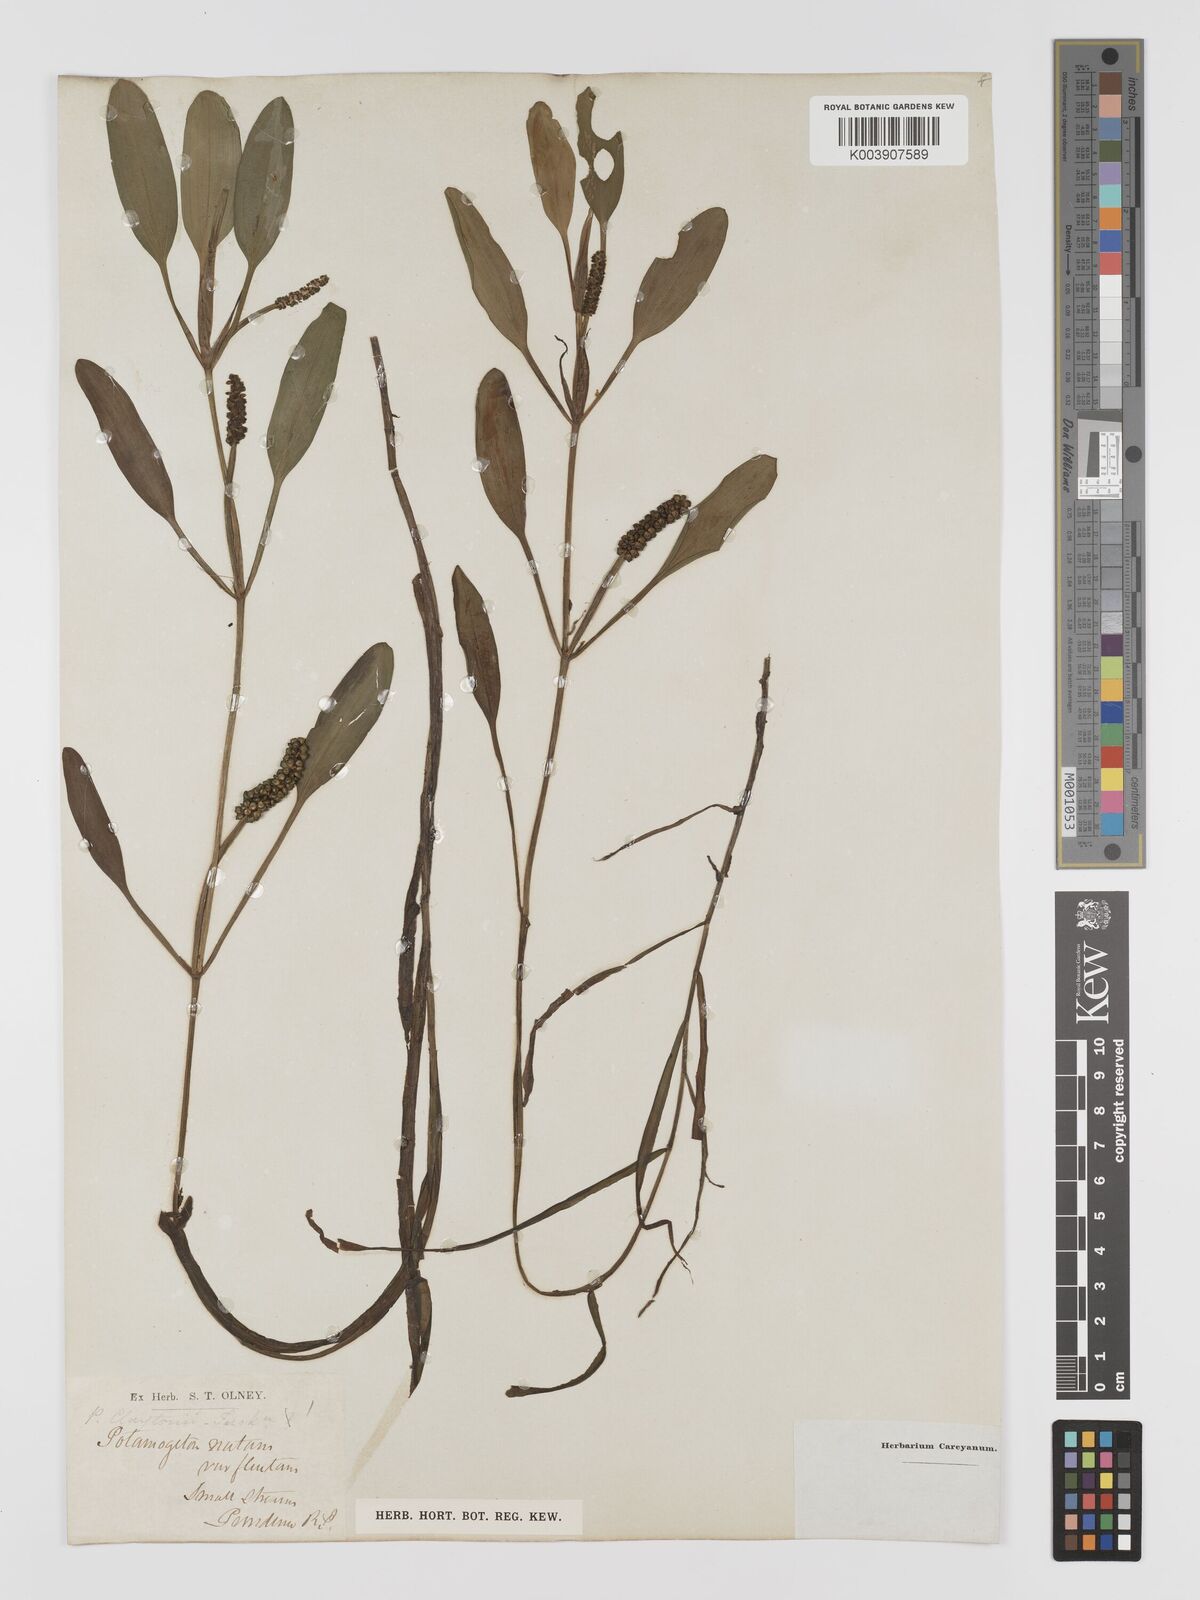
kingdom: Plantae
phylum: Tracheophyta
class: Liliopsida
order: Alismatales
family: Potamogetonaceae
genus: Potamogeton
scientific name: Potamogeton epihydrus
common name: American pondweed
